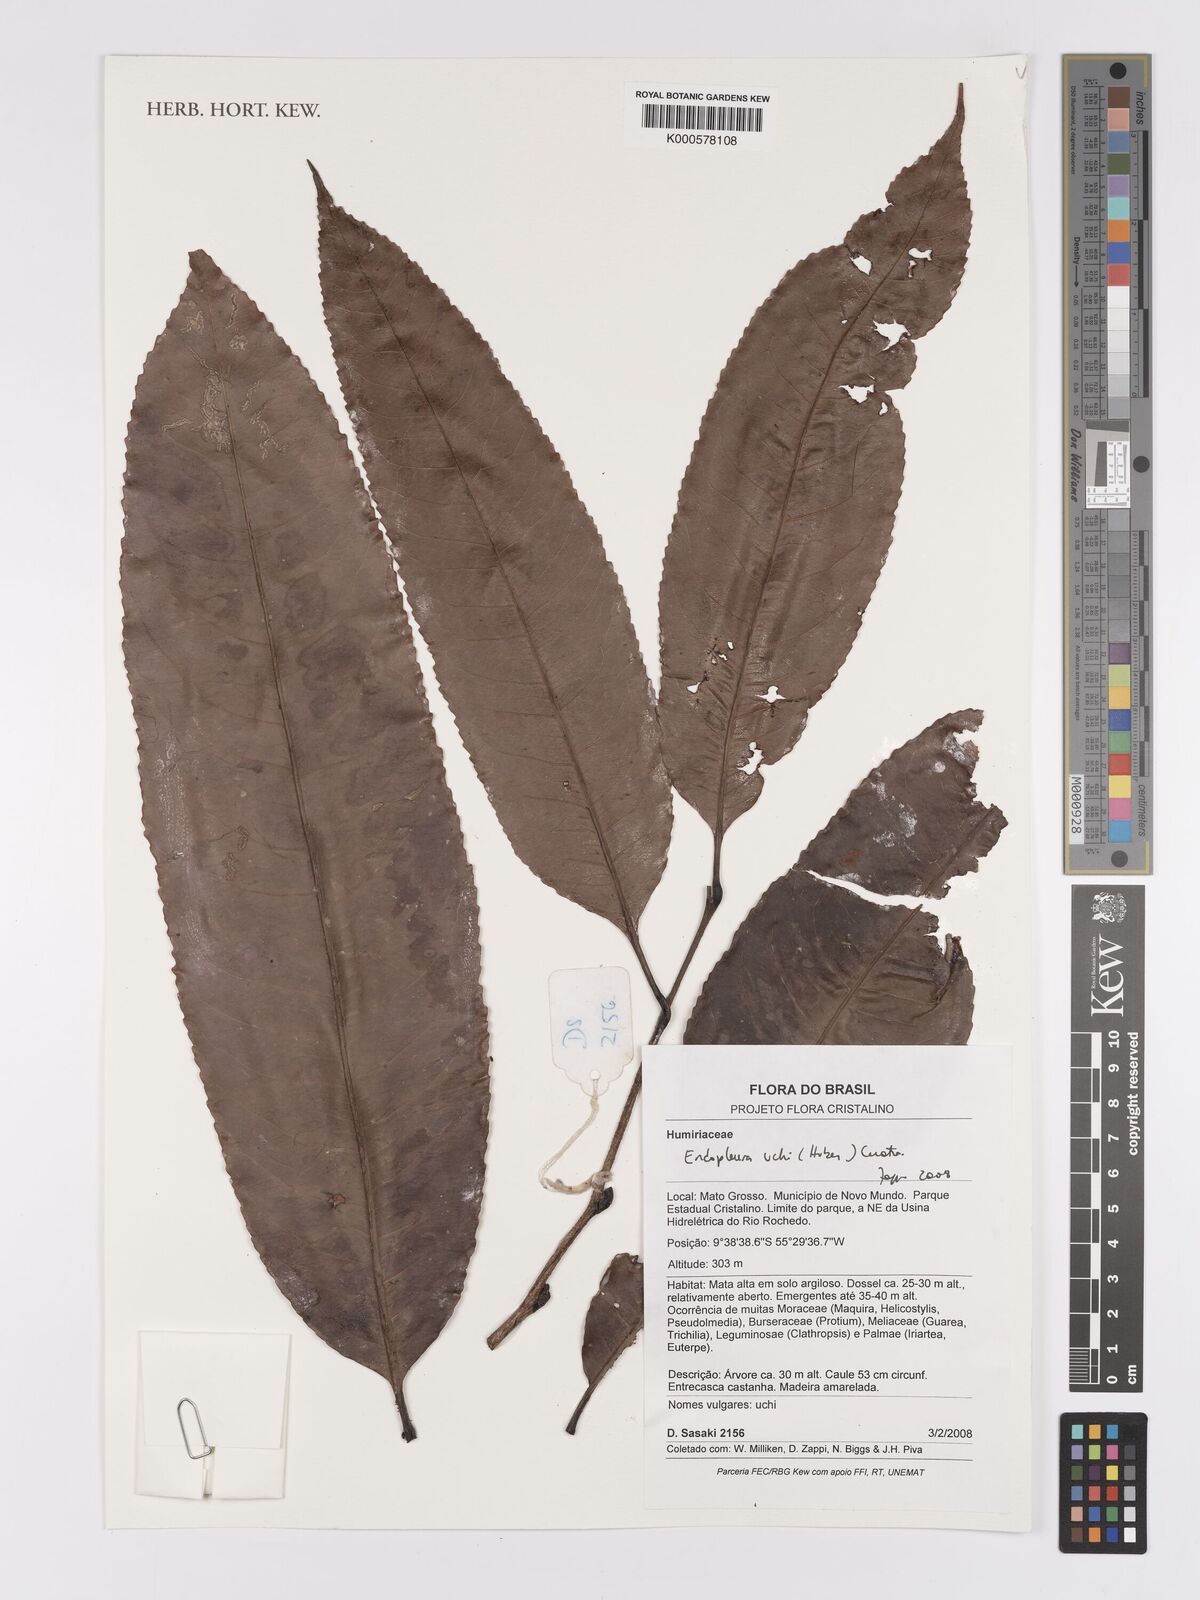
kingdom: Plantae
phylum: Tracheophyta
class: Magnoliopsida
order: Malpighiales
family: Humiriaceae
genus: Endopleura
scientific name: Endopleura uchi
